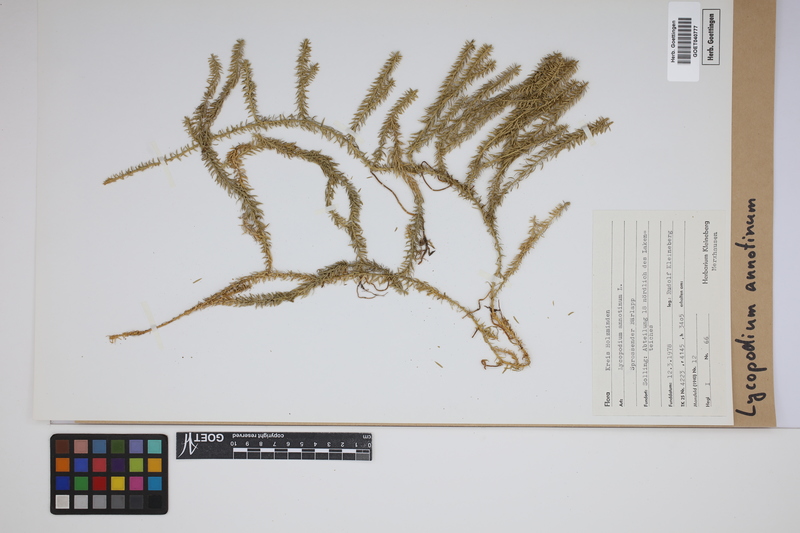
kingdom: Plantae
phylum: Tracheophyta
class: Lycopodiopsida
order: Lycopodiales
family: Lycopodiaceae
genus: Spinulum
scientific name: Spinulum annotinum
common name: Interrupted club-moss
